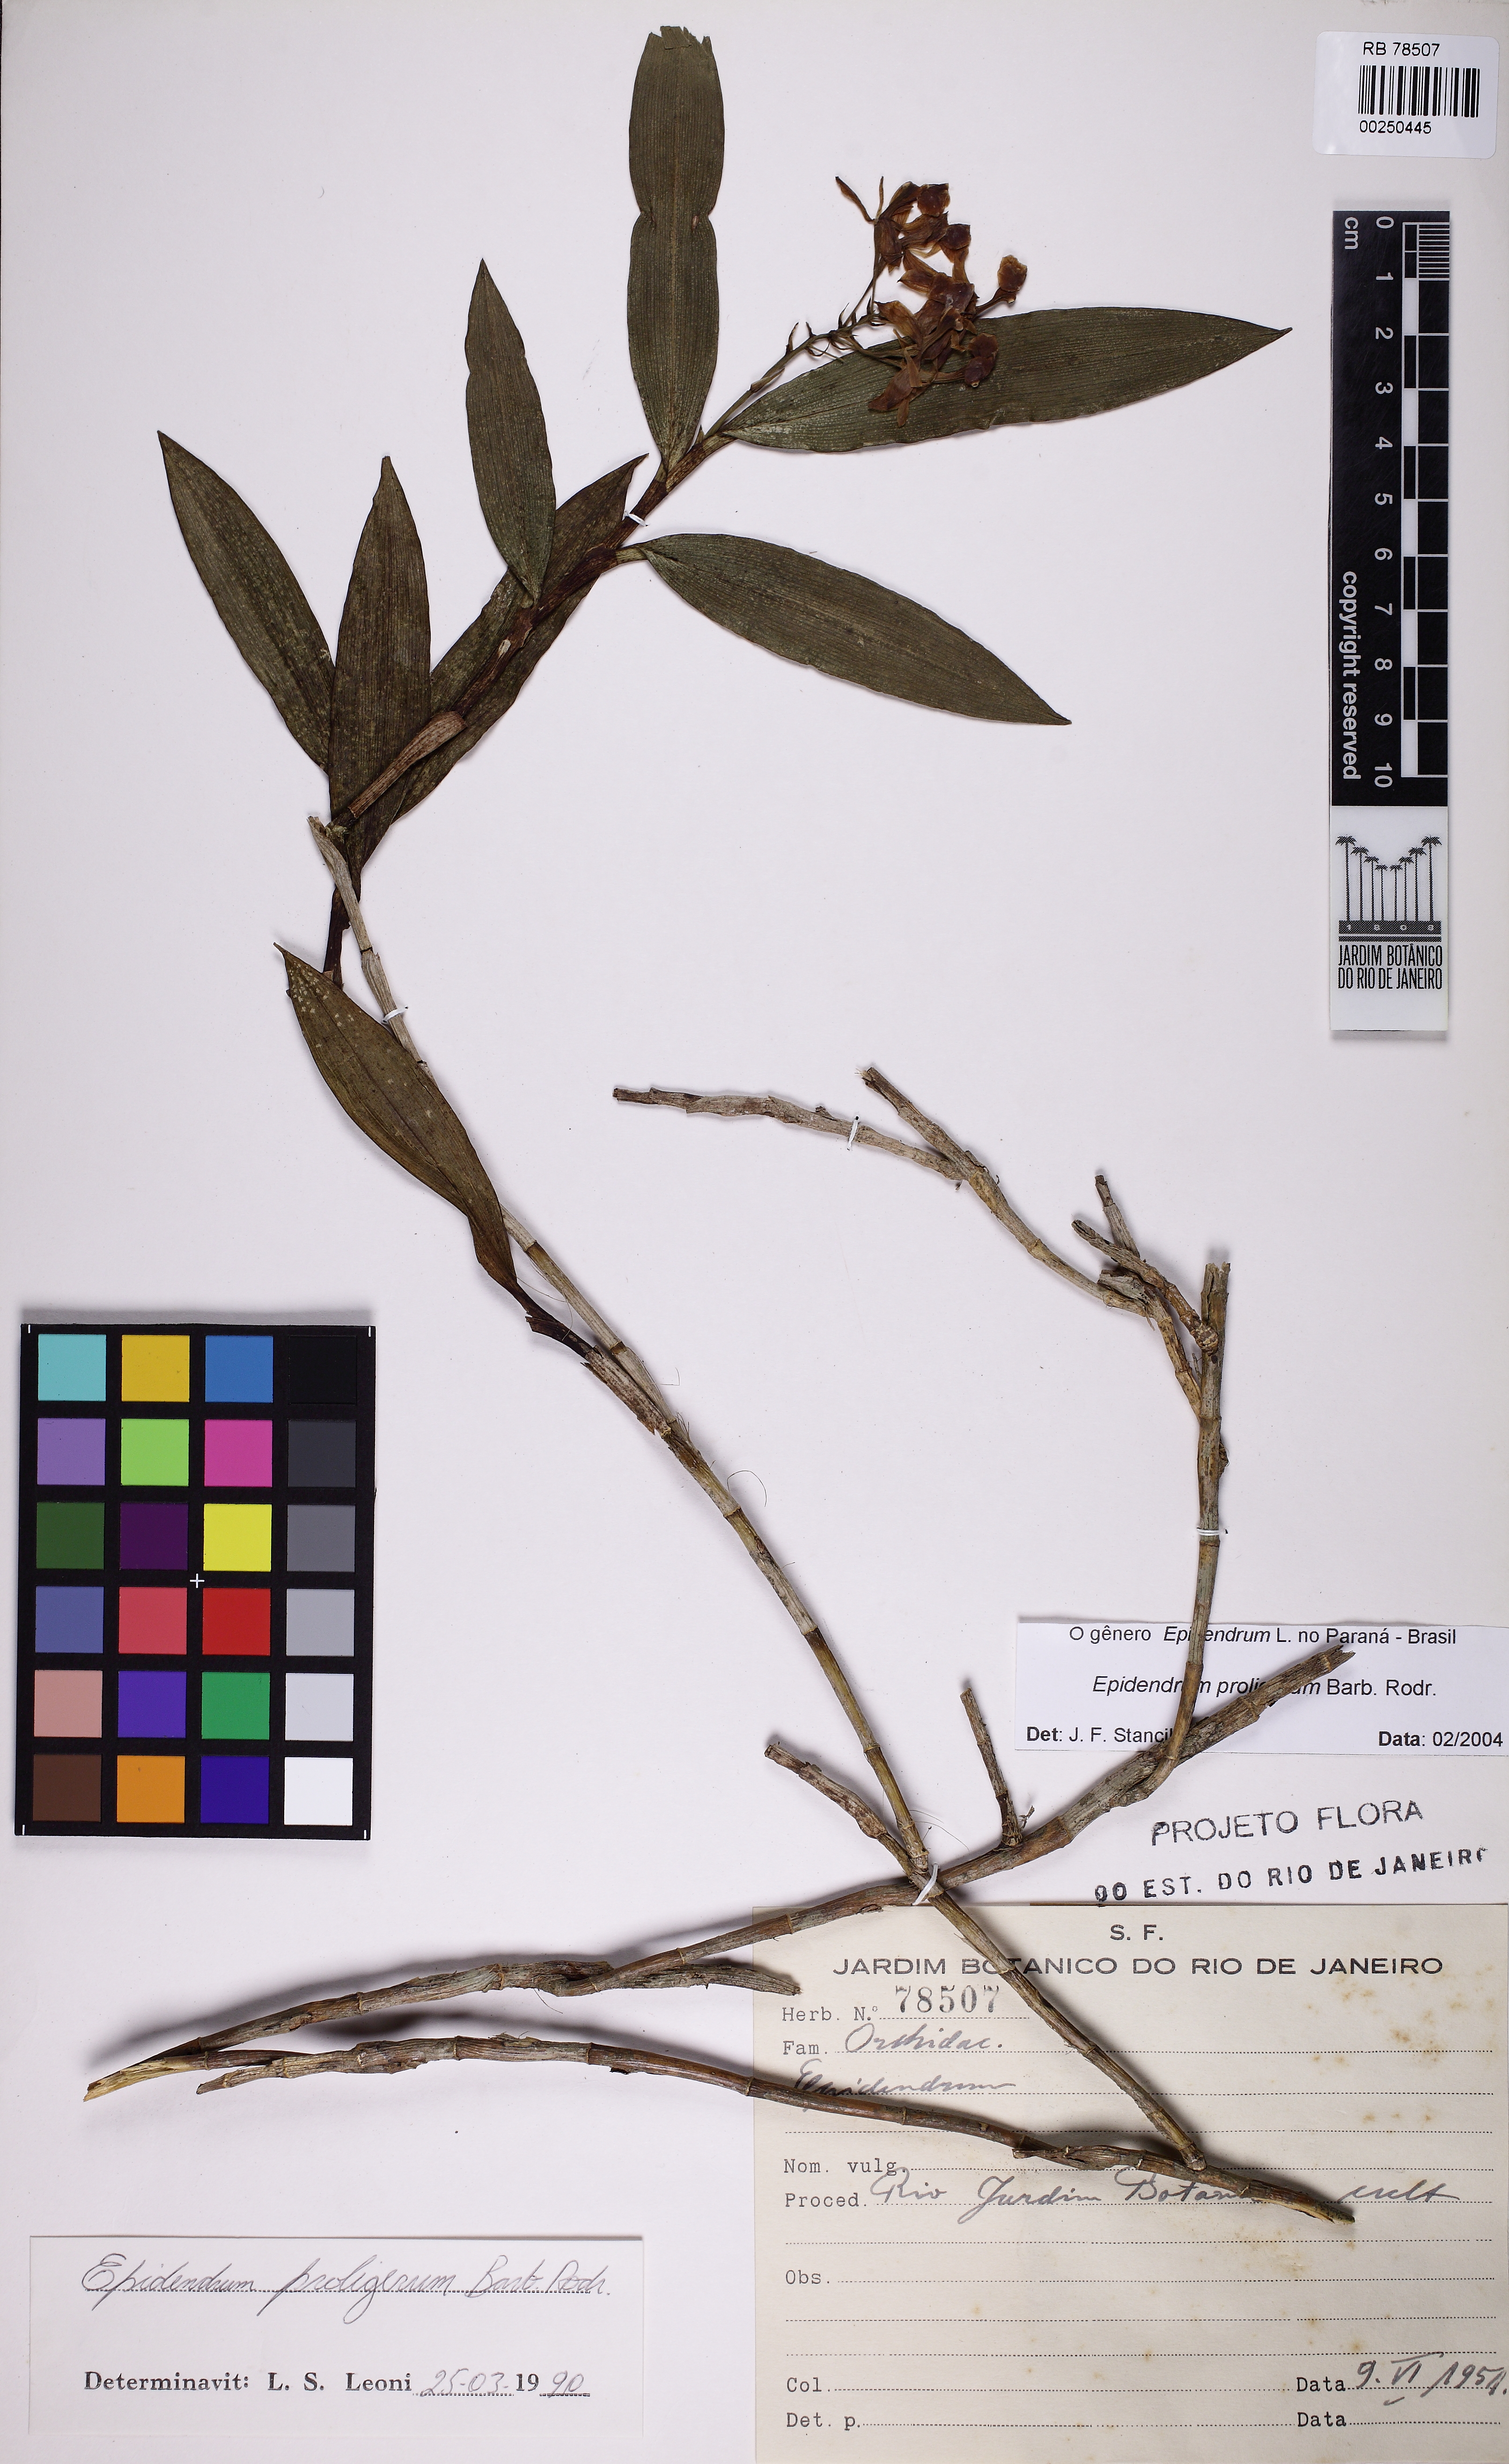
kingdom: Plantae
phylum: Tracheophyta
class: Liliopsida
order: Asparagales
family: Orchidaceae
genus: Epidendrum
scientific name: Epidendrum proligerum
